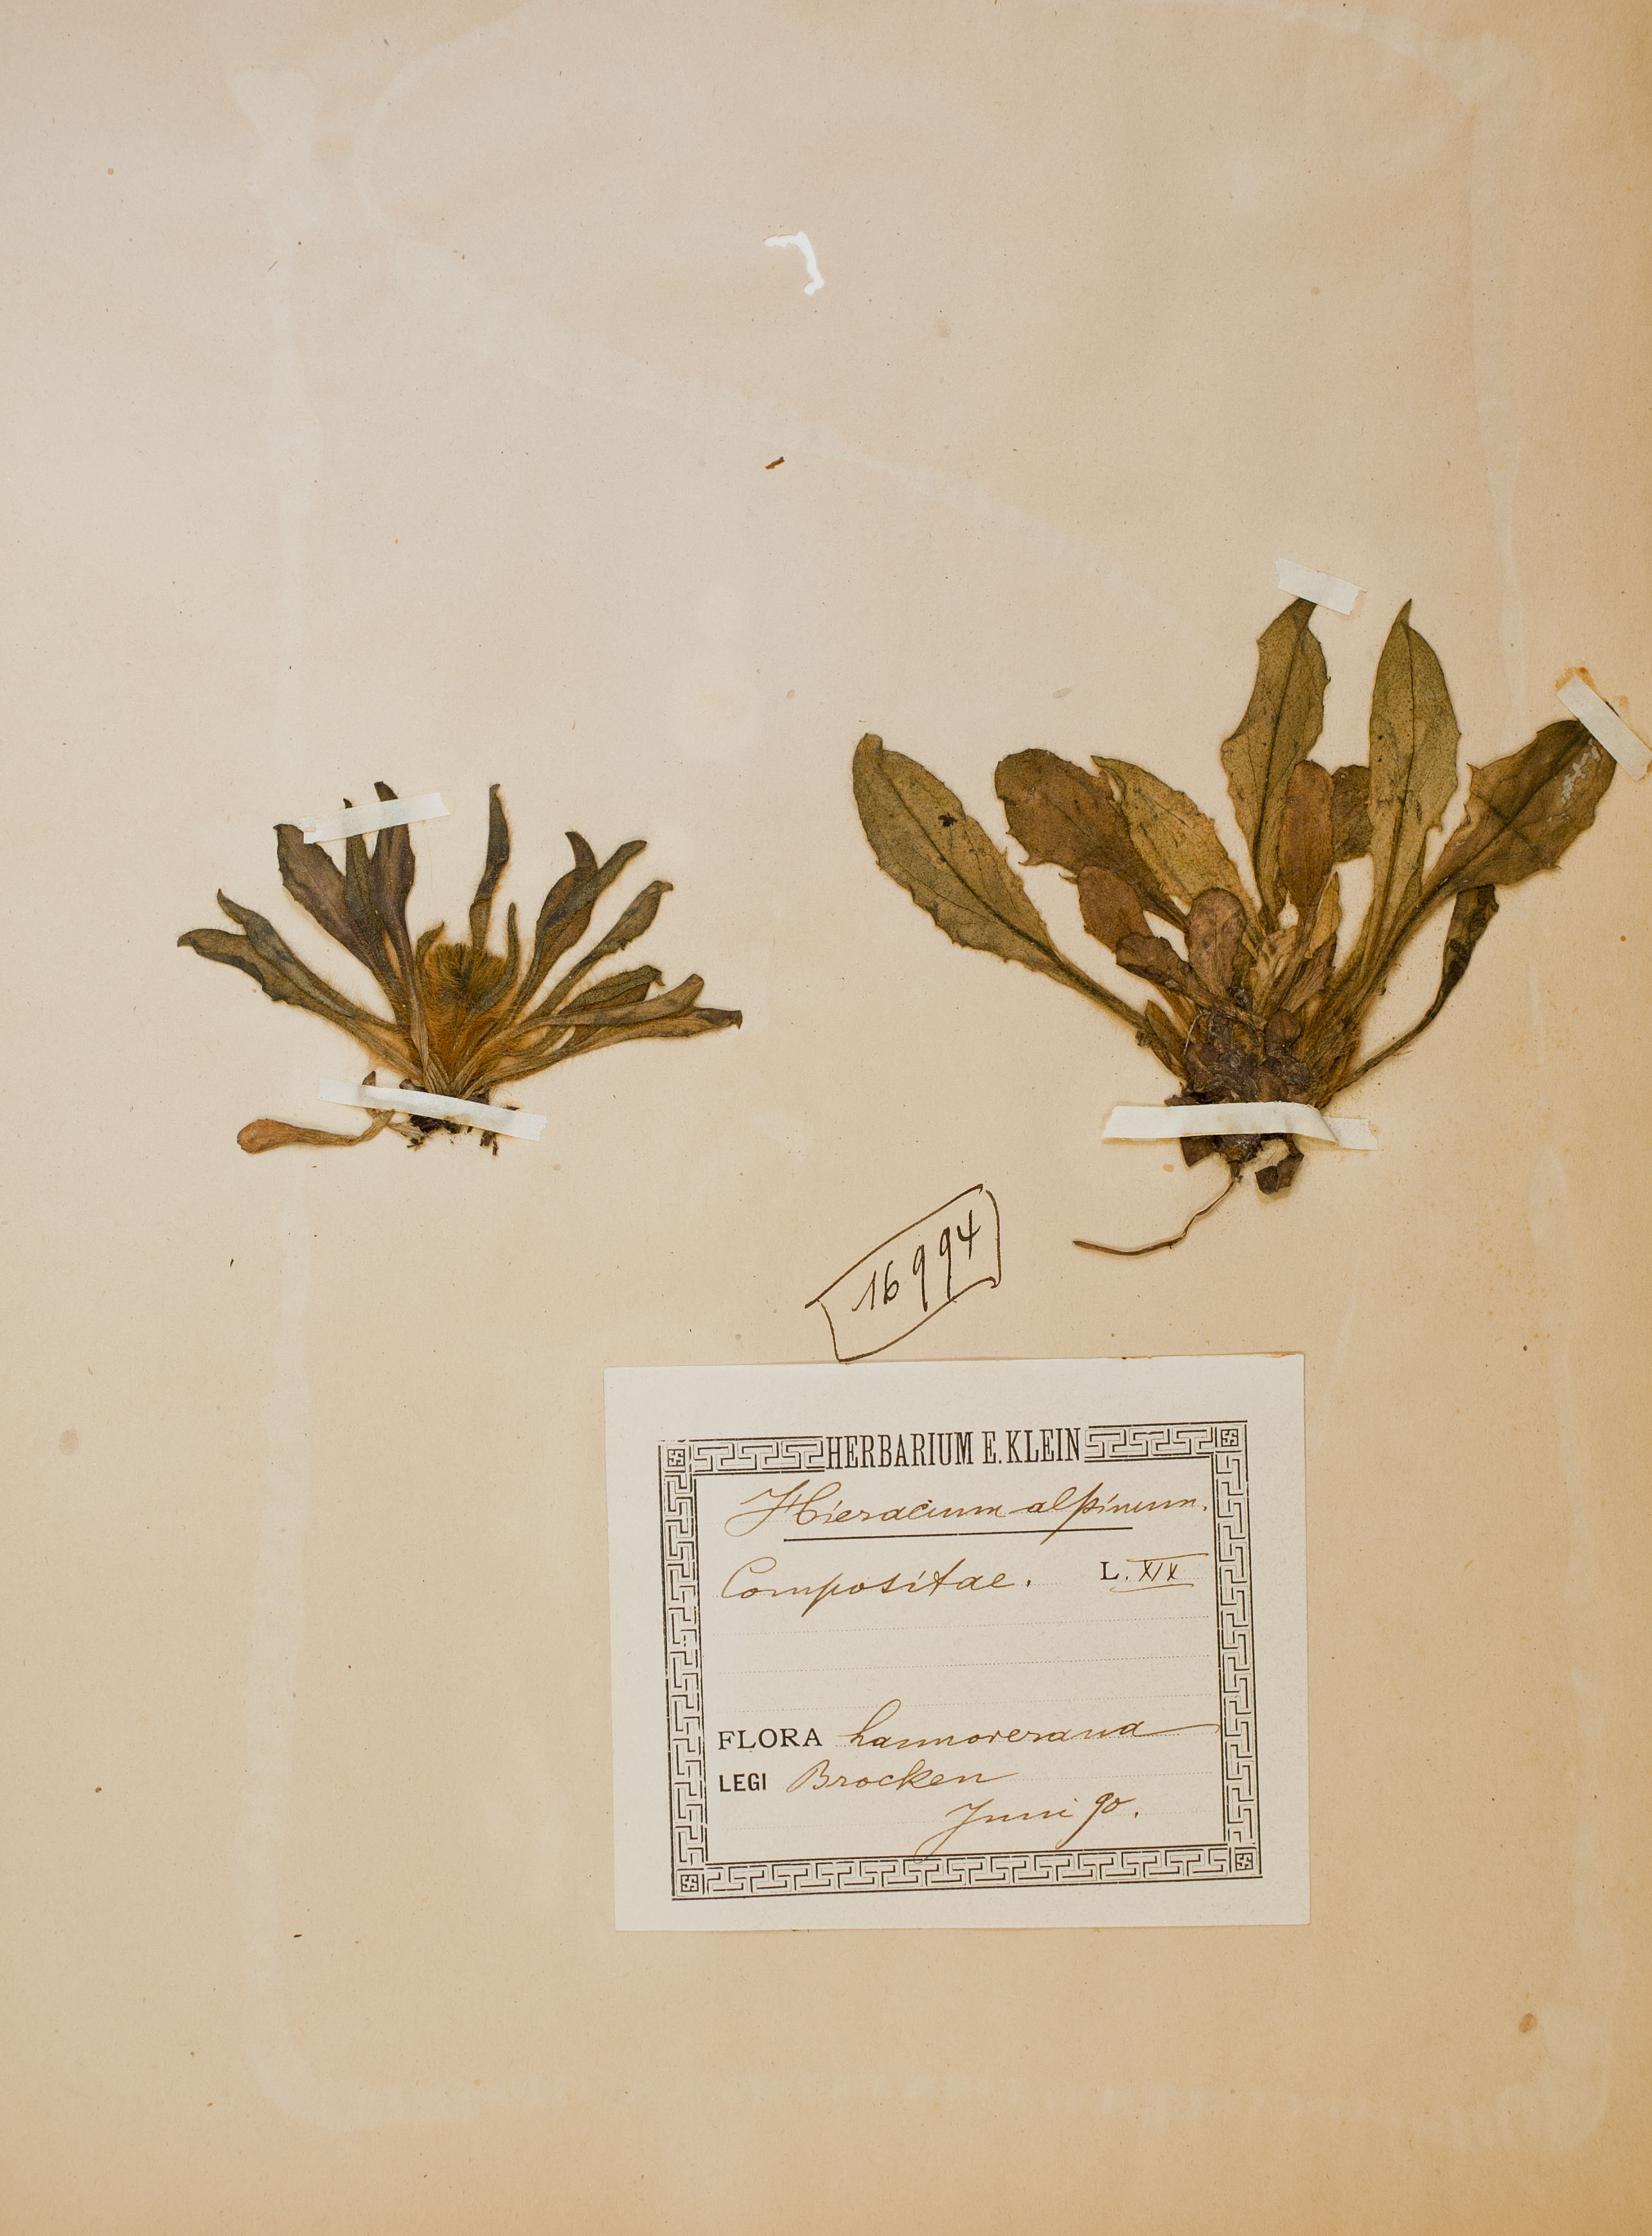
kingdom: Plantae
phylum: Tracheophyta
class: Magnoliopsida
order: Asterales
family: Asteraceae
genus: Hieracium
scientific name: Hieracium alpinum
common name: Alpine hawkweed
